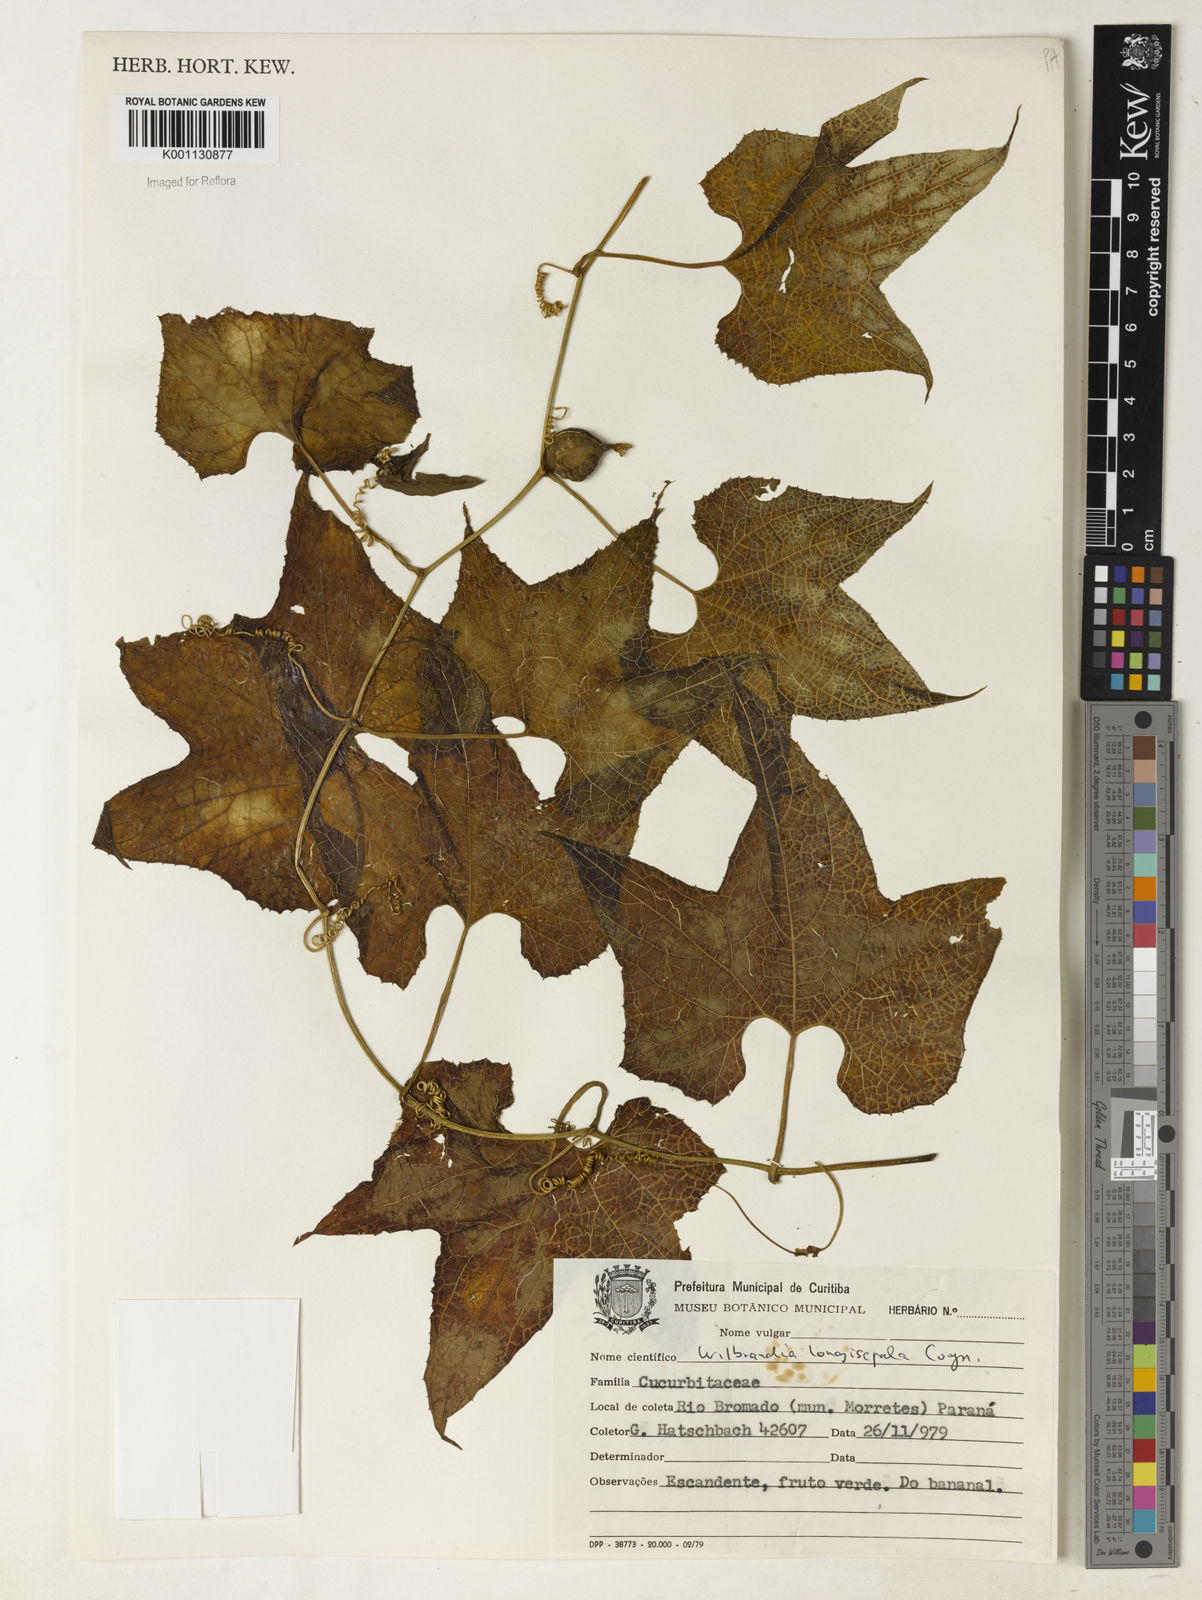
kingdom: Plantae
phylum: Tracheophyta
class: Magnoliopsida
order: Cucurbitales
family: Cucurbitaceae
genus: Wilbrandia
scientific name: Wilbrandia longisepala
